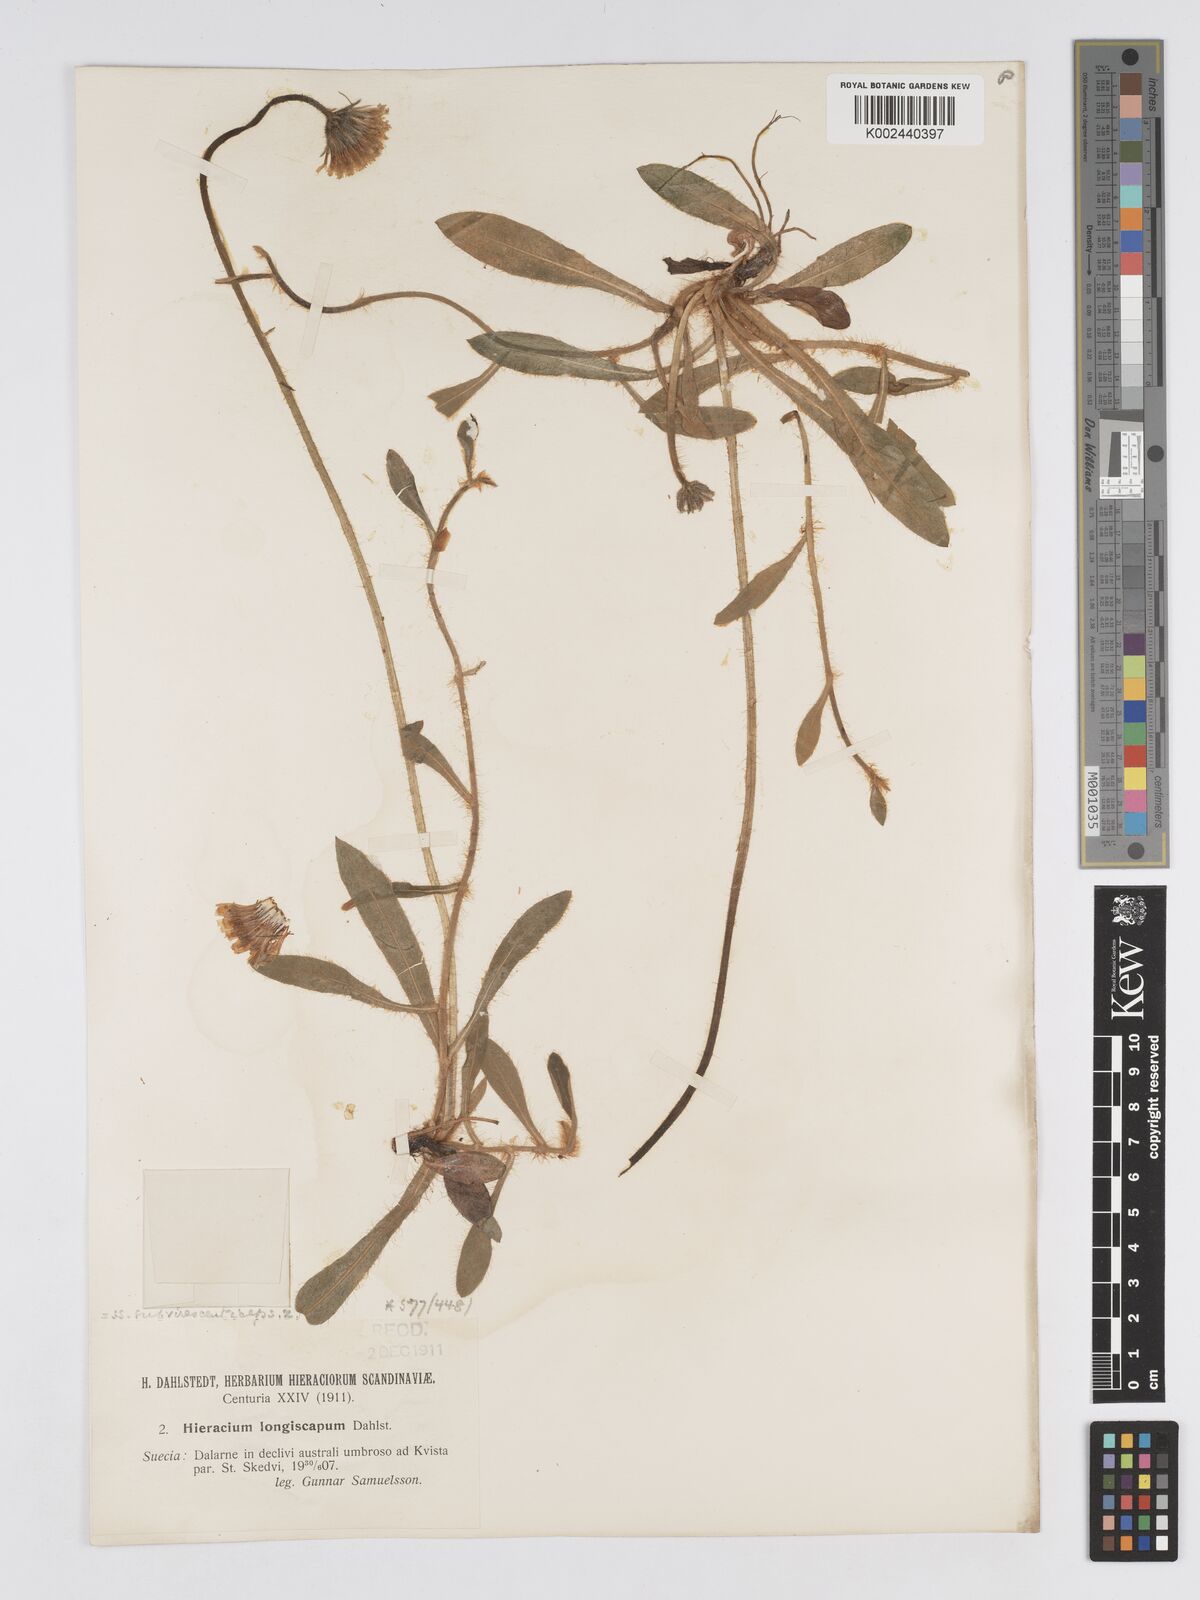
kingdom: Plantae
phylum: Tracheophyta
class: Magnoliopsida
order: Asterales
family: Asteraceae
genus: Pilosella
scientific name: Pilosella officinarum
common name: Mouse-ear hawkweed
